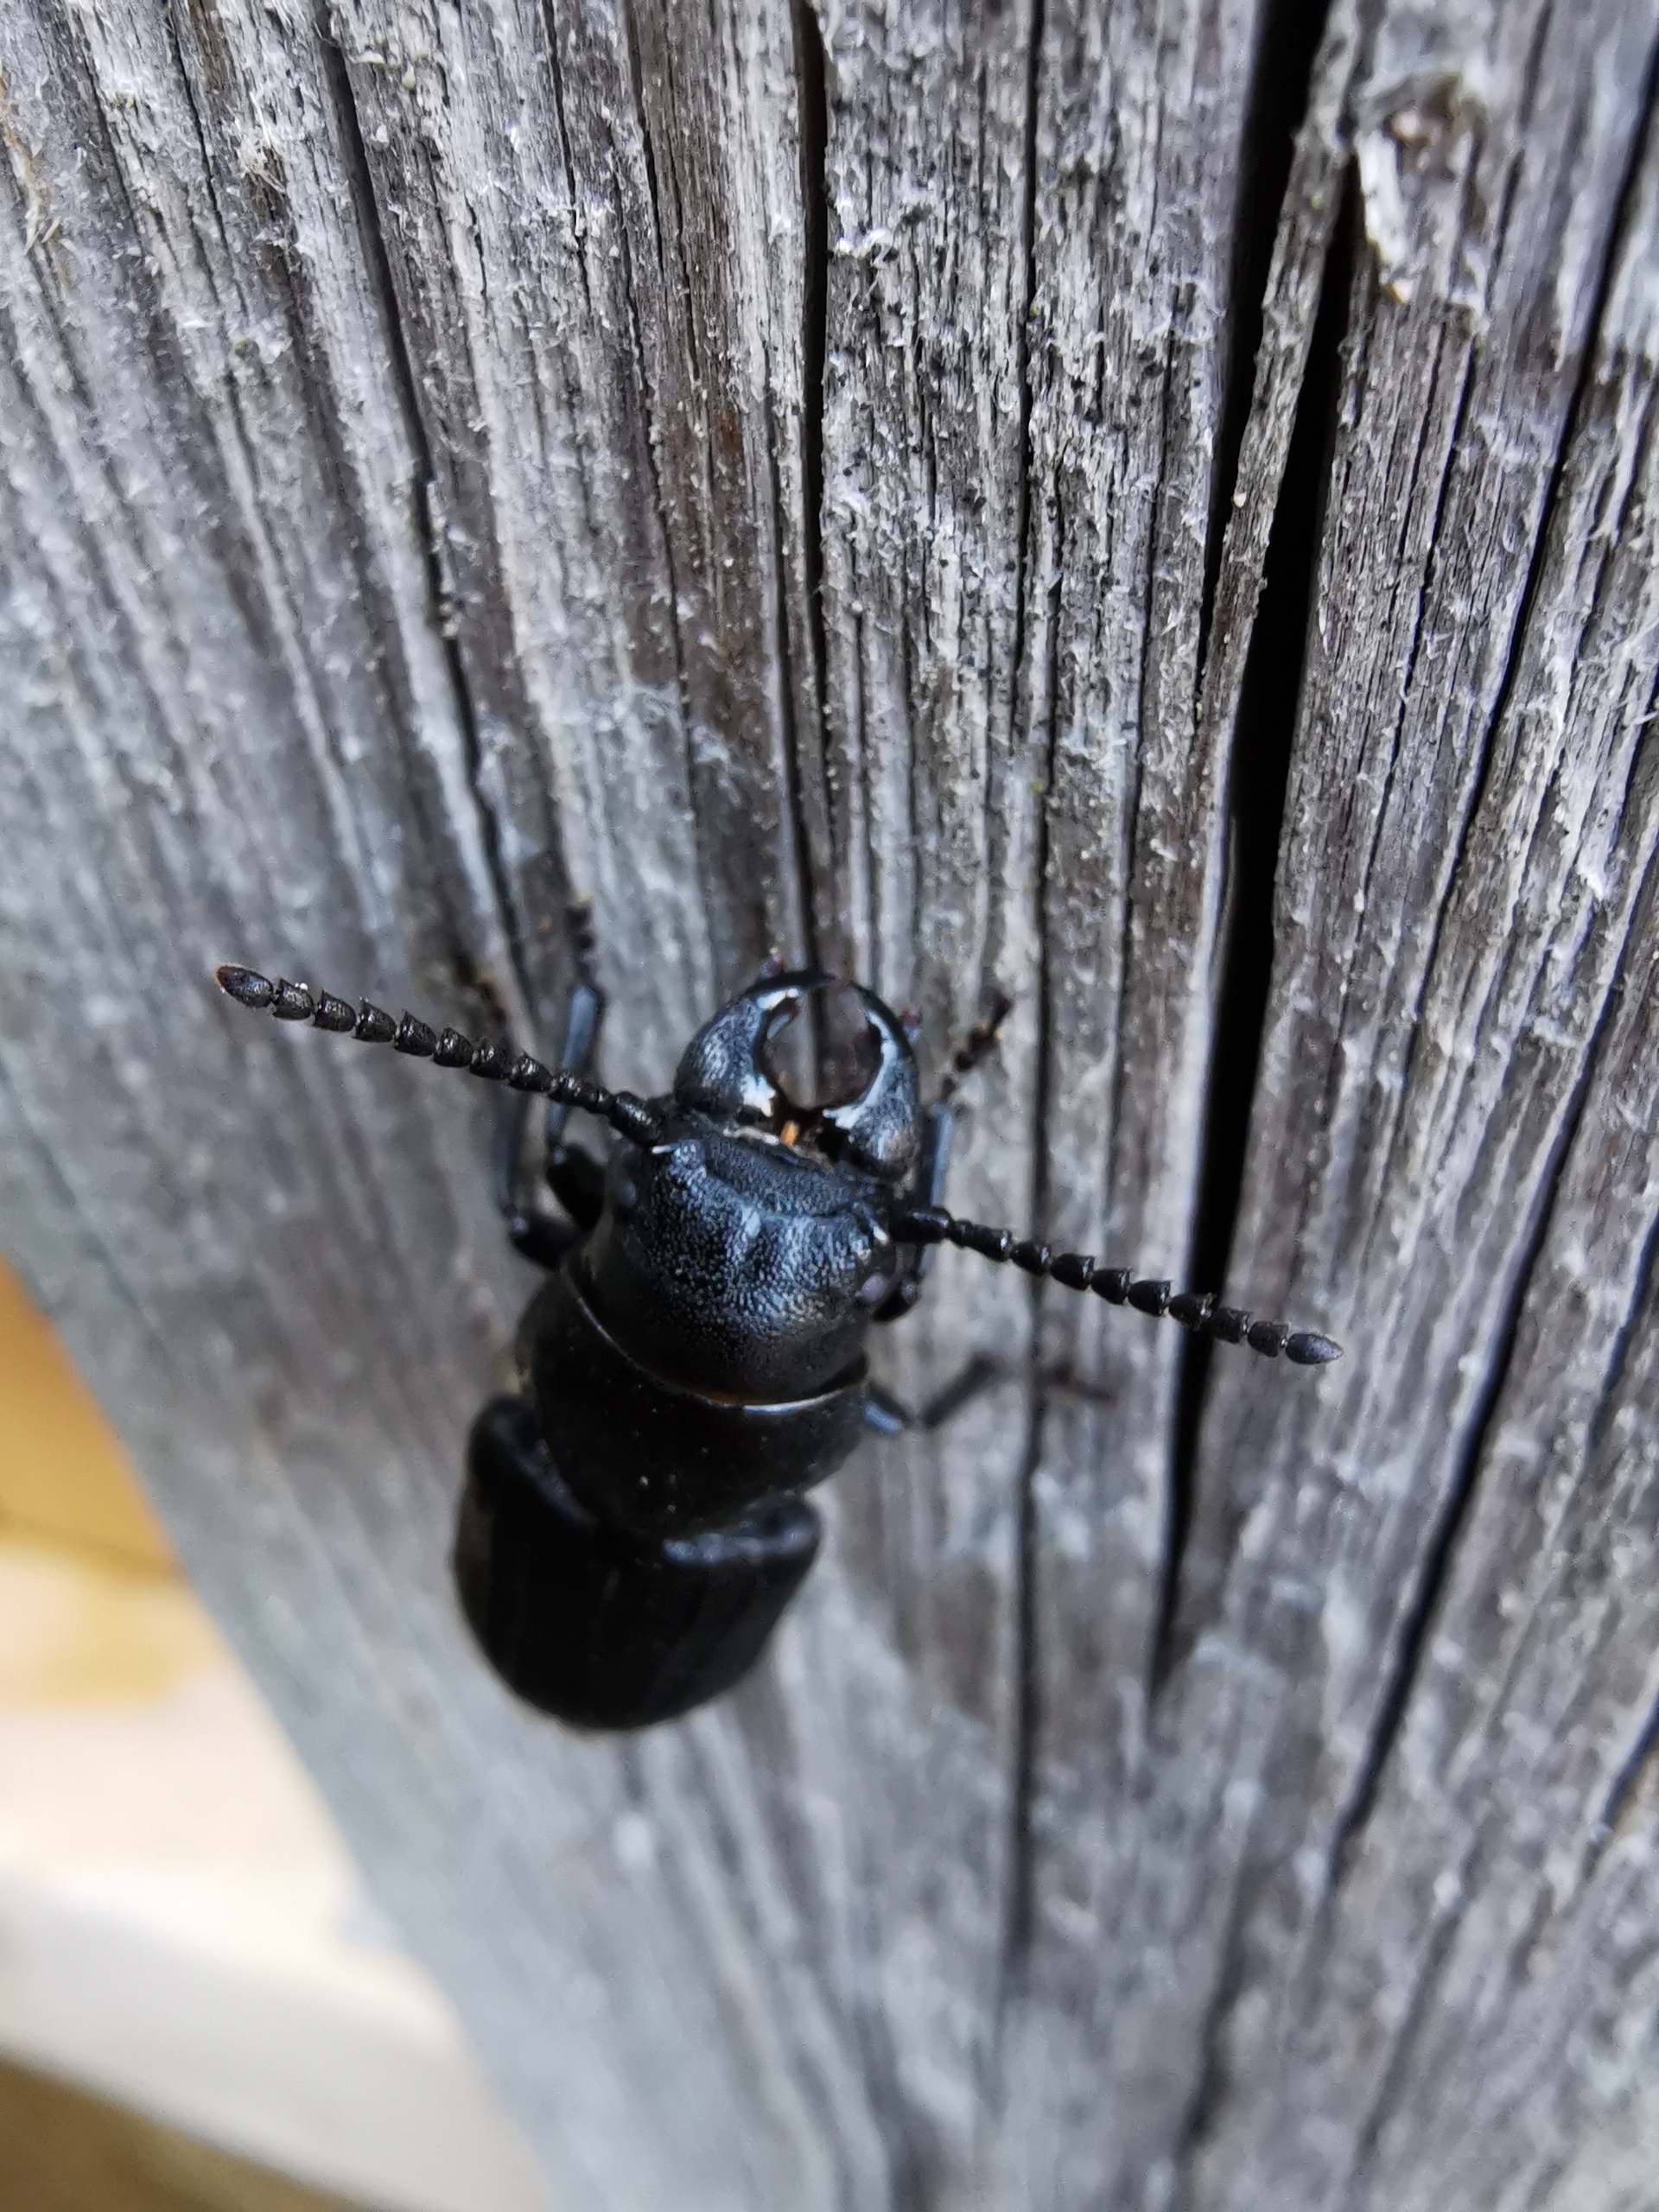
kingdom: Animalia
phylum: Arthropoda
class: Insecta
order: Coleoptera
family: Cerambycidae
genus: Spondylis
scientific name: Spondylis buprestoides
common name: Valsebuk
